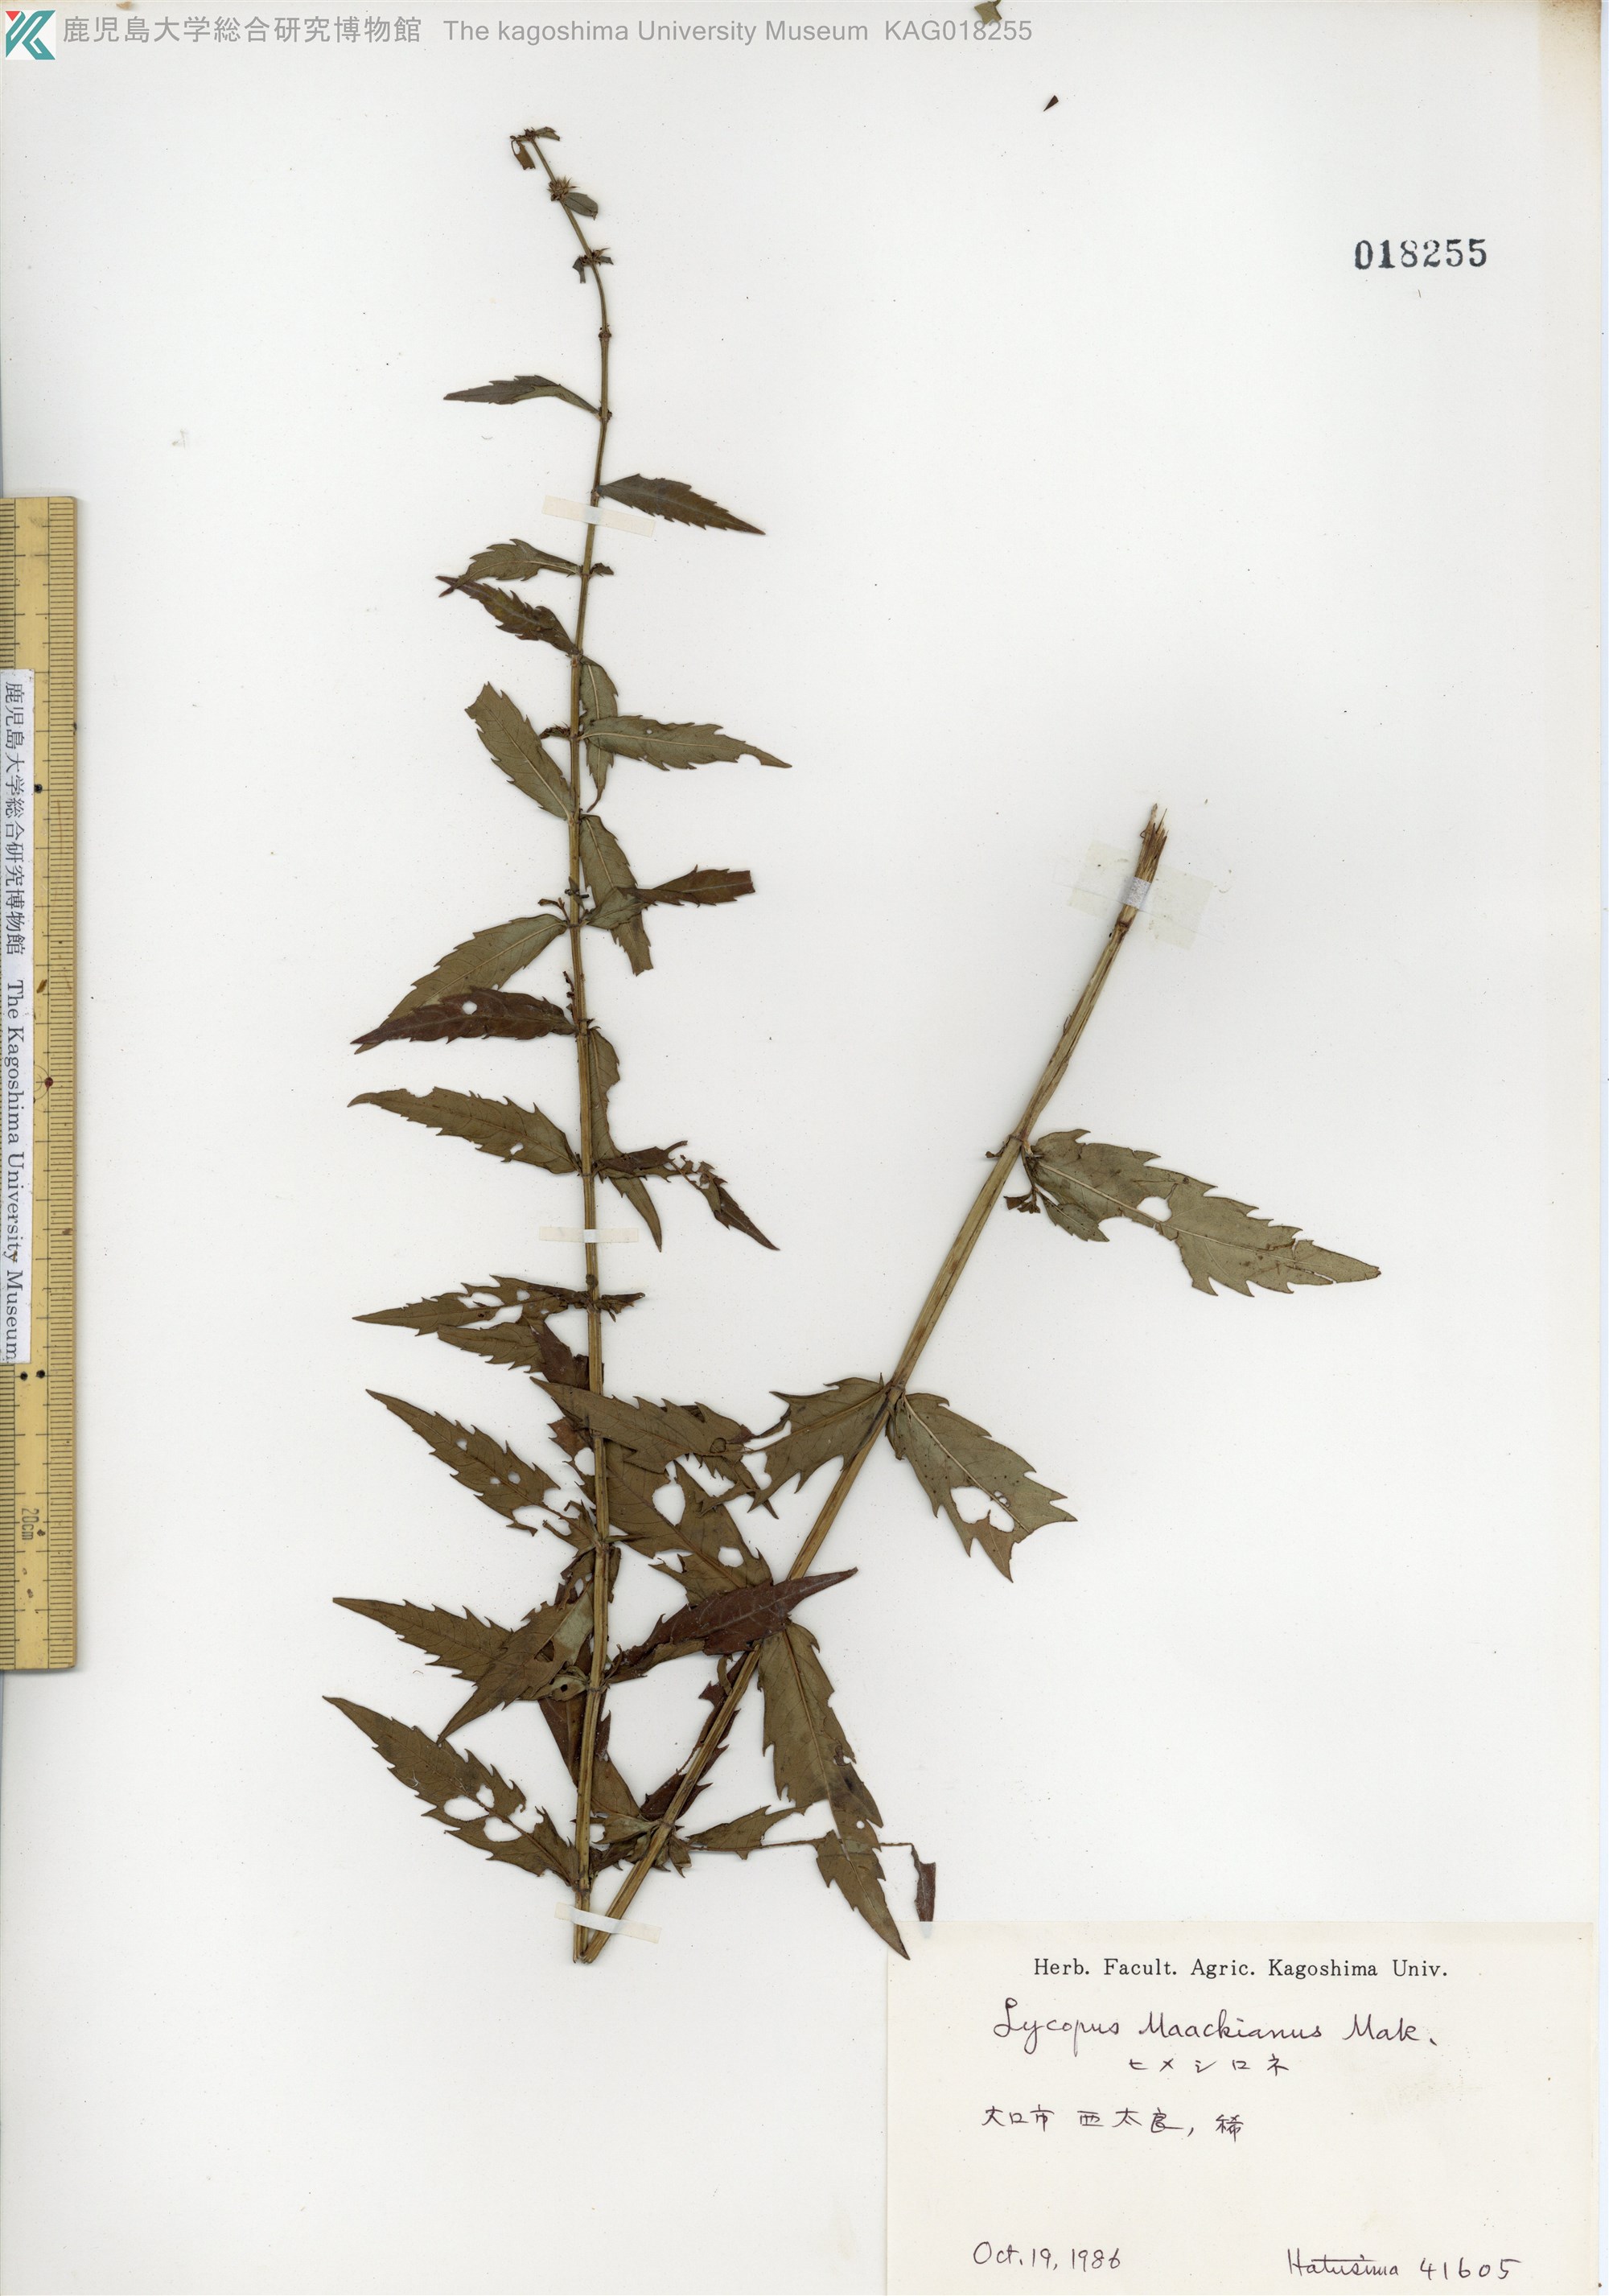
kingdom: Plantae
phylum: Tracheophyta
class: Magnoliopsida
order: Lamiales
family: Lamiaceae
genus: Lycopus
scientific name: Lycopus lucidus
